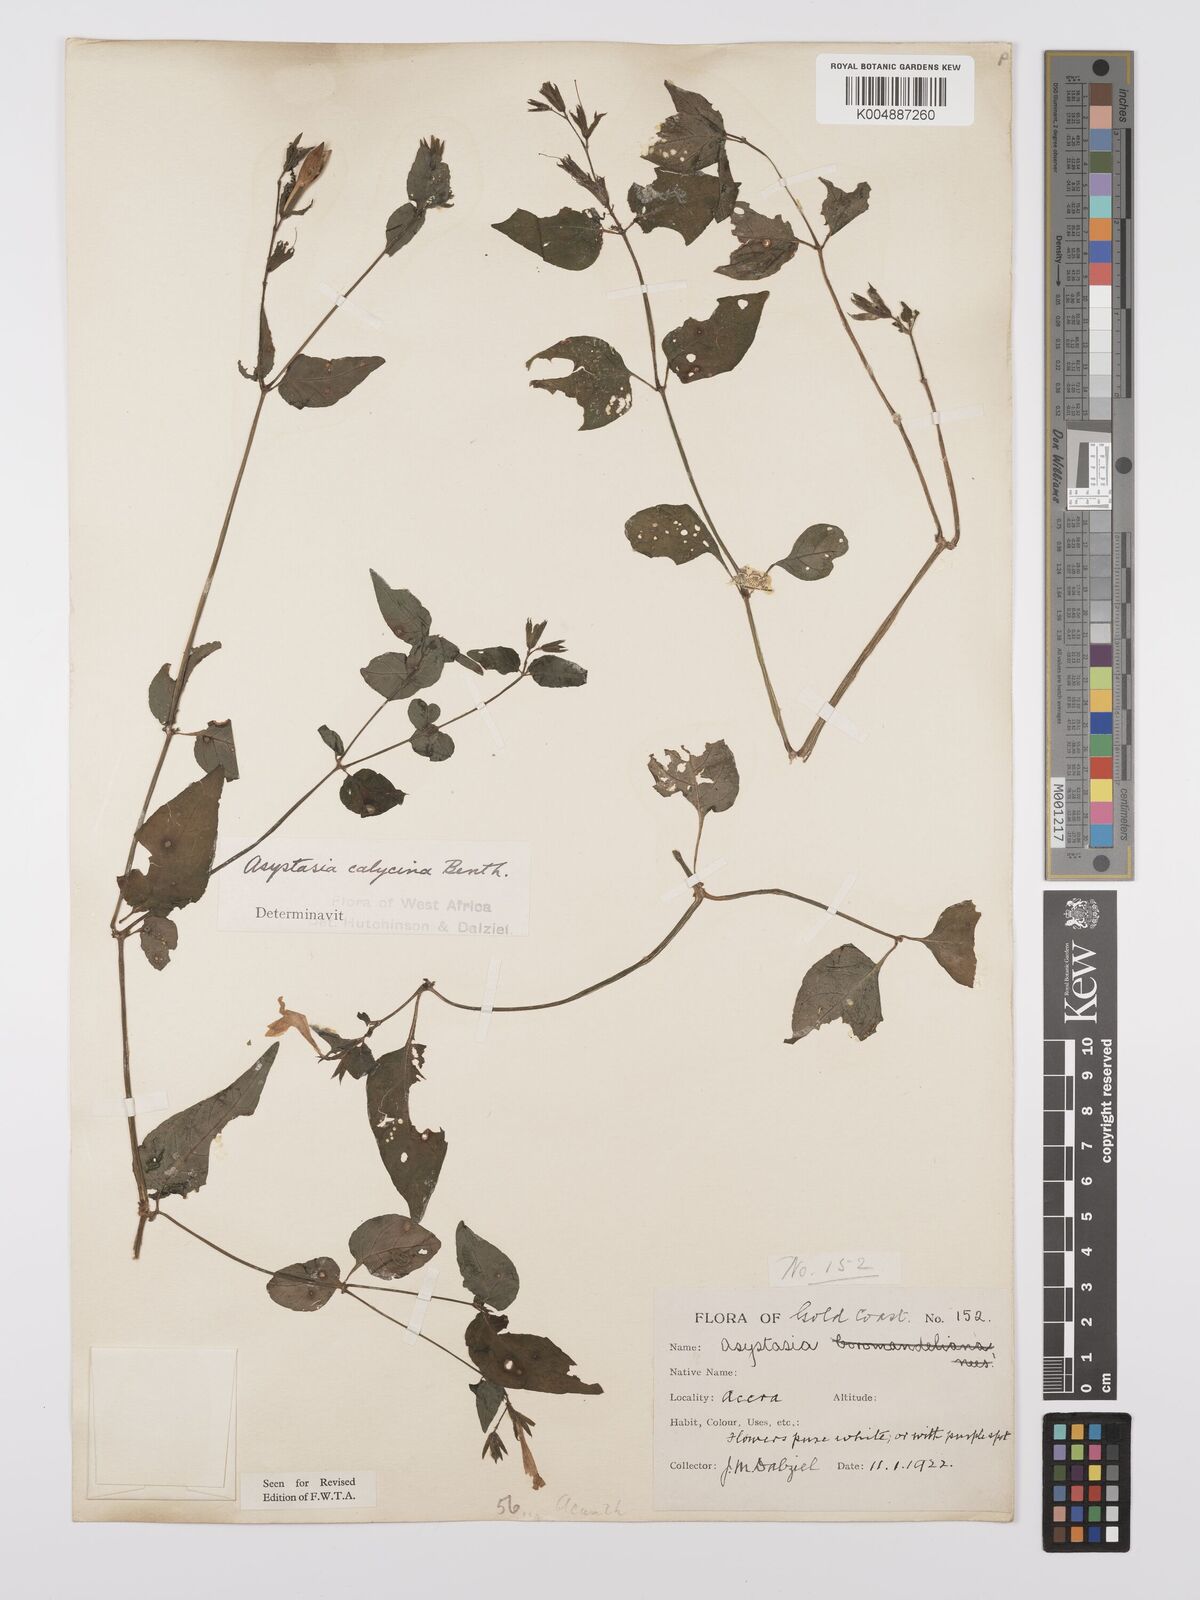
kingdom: Plantae
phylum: Tracheophyta
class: Magnoliopsida
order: Lamiales
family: Acanthaceae
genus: Asystasia
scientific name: Asystasia
